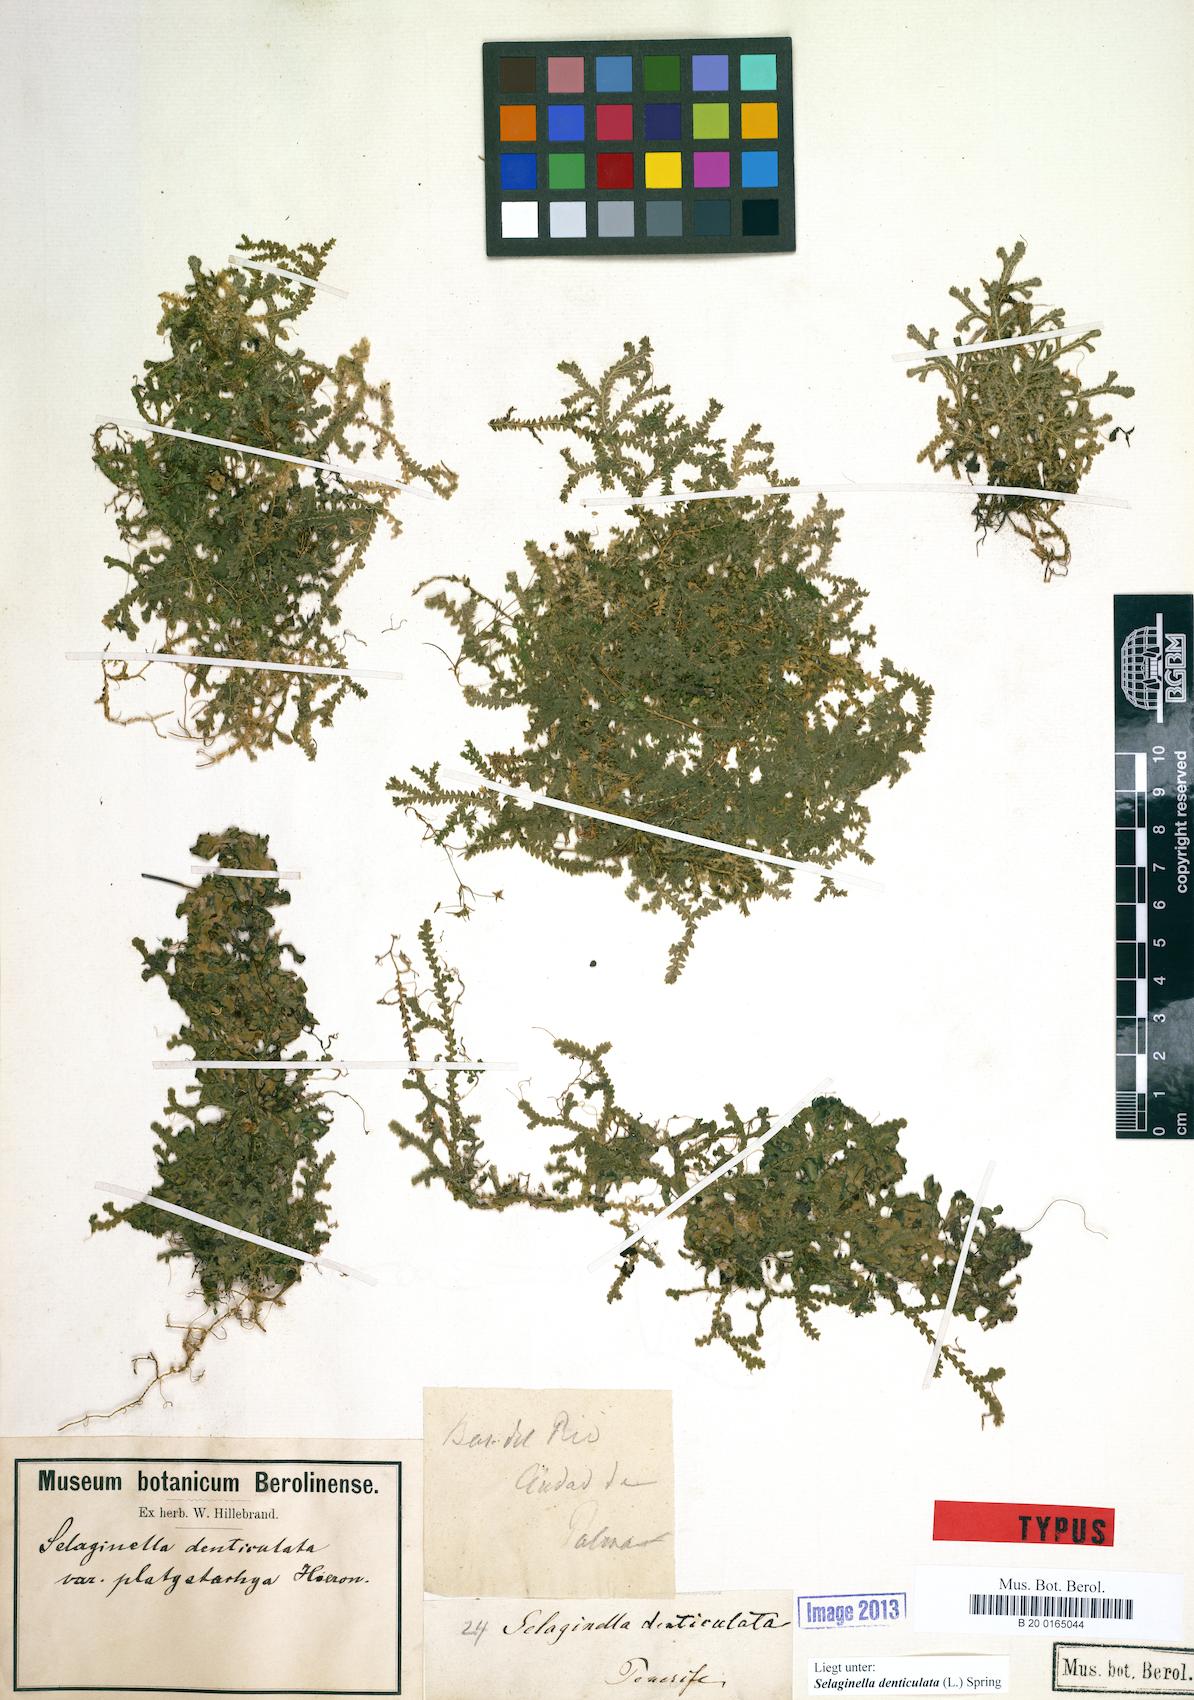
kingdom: Plantae
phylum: Tracheophyta
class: Lycopodiopsida
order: Selaginellales
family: Selaginellaceae
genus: Selaginella
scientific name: Selaginella denticulata
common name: Toothed-leaved clubmoss
